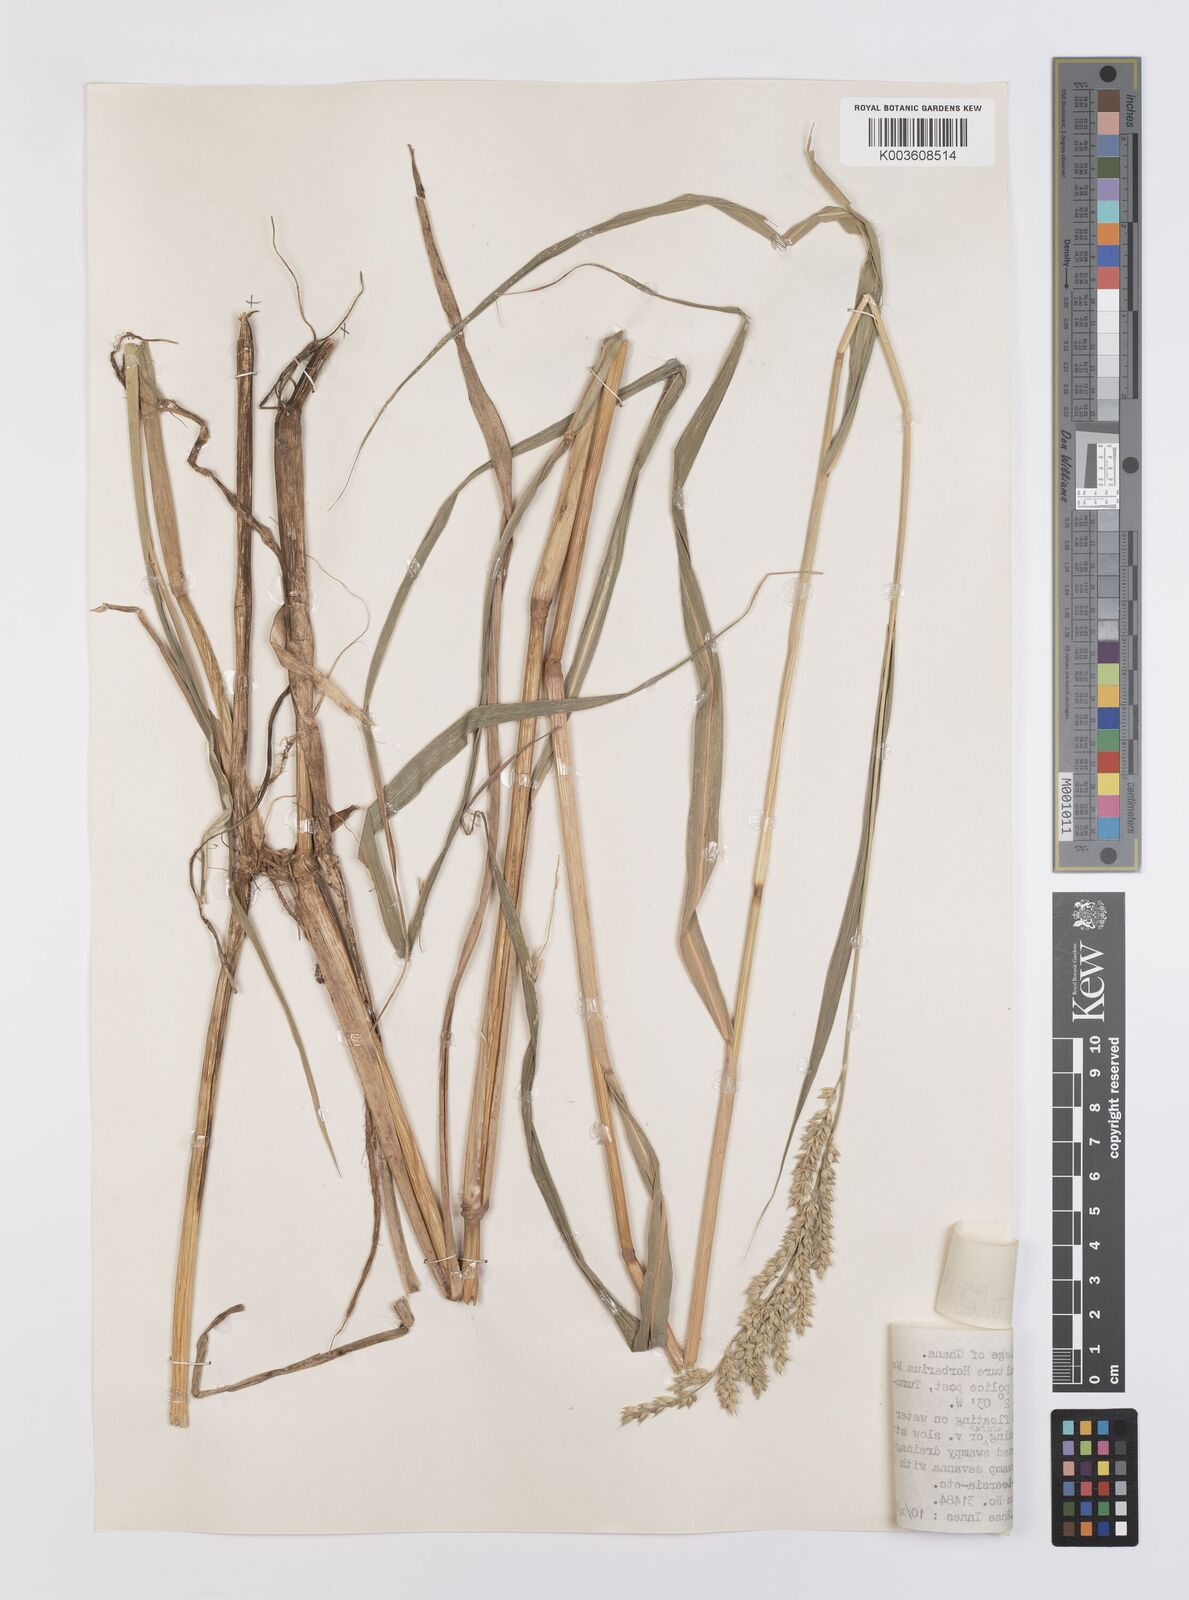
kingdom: Plantae
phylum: Tracheophyta
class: Liliopsida
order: Poales
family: Poaceae
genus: Echinochloa
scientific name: Echinochloa stagnina
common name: Burgu grass
